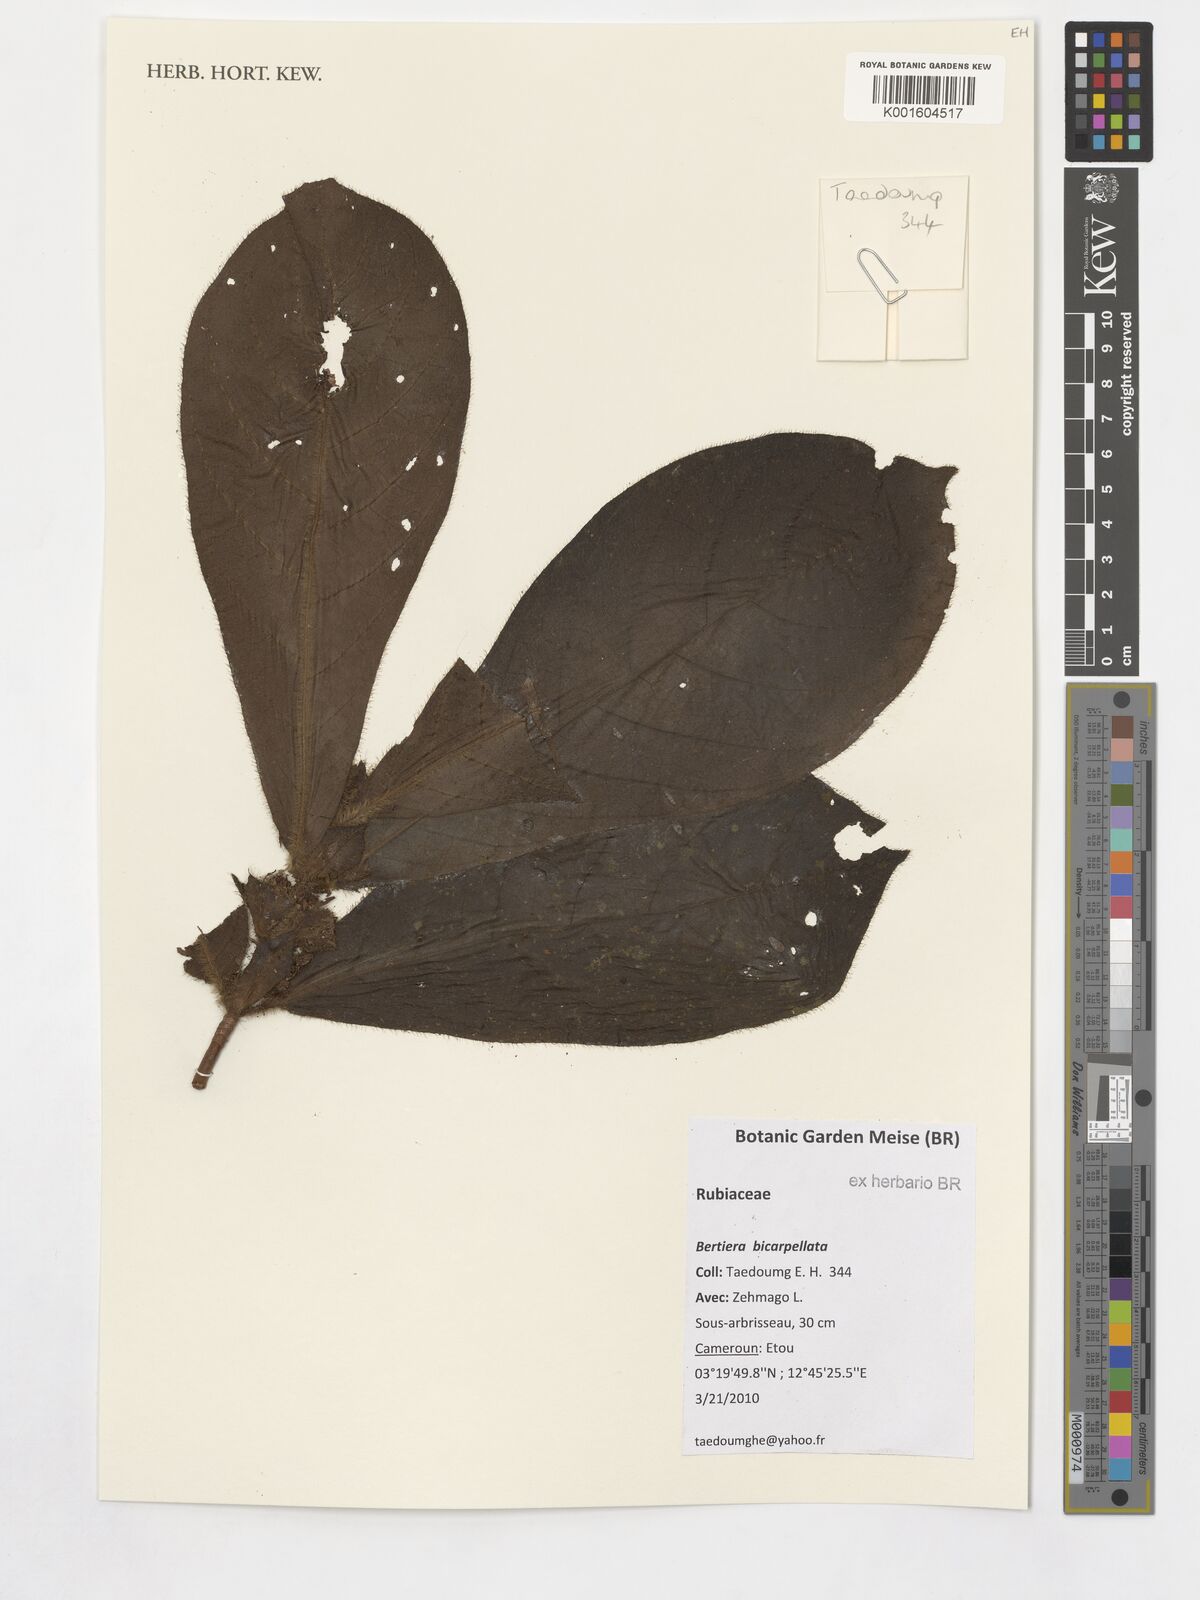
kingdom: Plantae
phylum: Tracheophyta
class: Magnoliopsida
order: Gentianales
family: Rubiaceae
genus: Bertiera
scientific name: Bertiera bicarpellata
